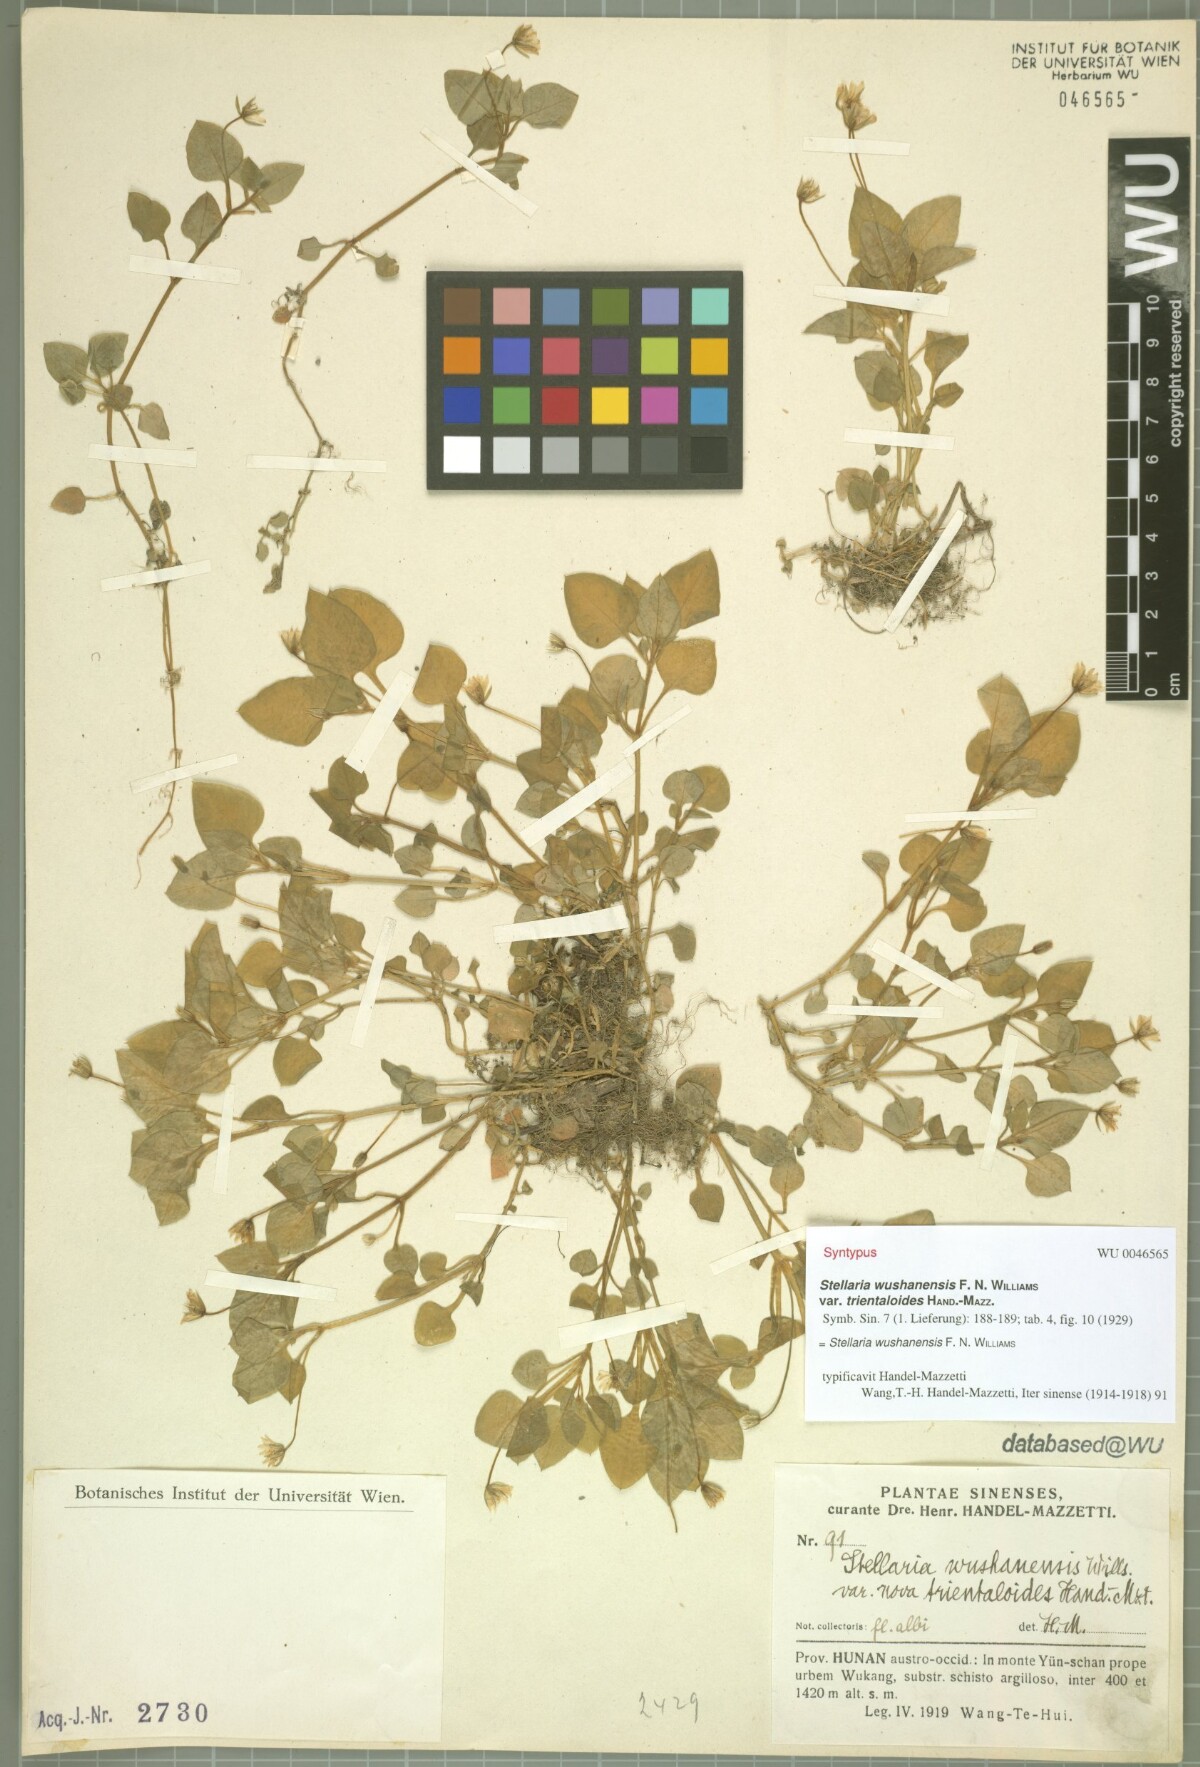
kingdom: Plantae
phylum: Tracheophyta
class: Magnoliopsida
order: Caryophyllales
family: Caryophyllaceae
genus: Nubelaria
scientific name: Nubelaria wushanensis
